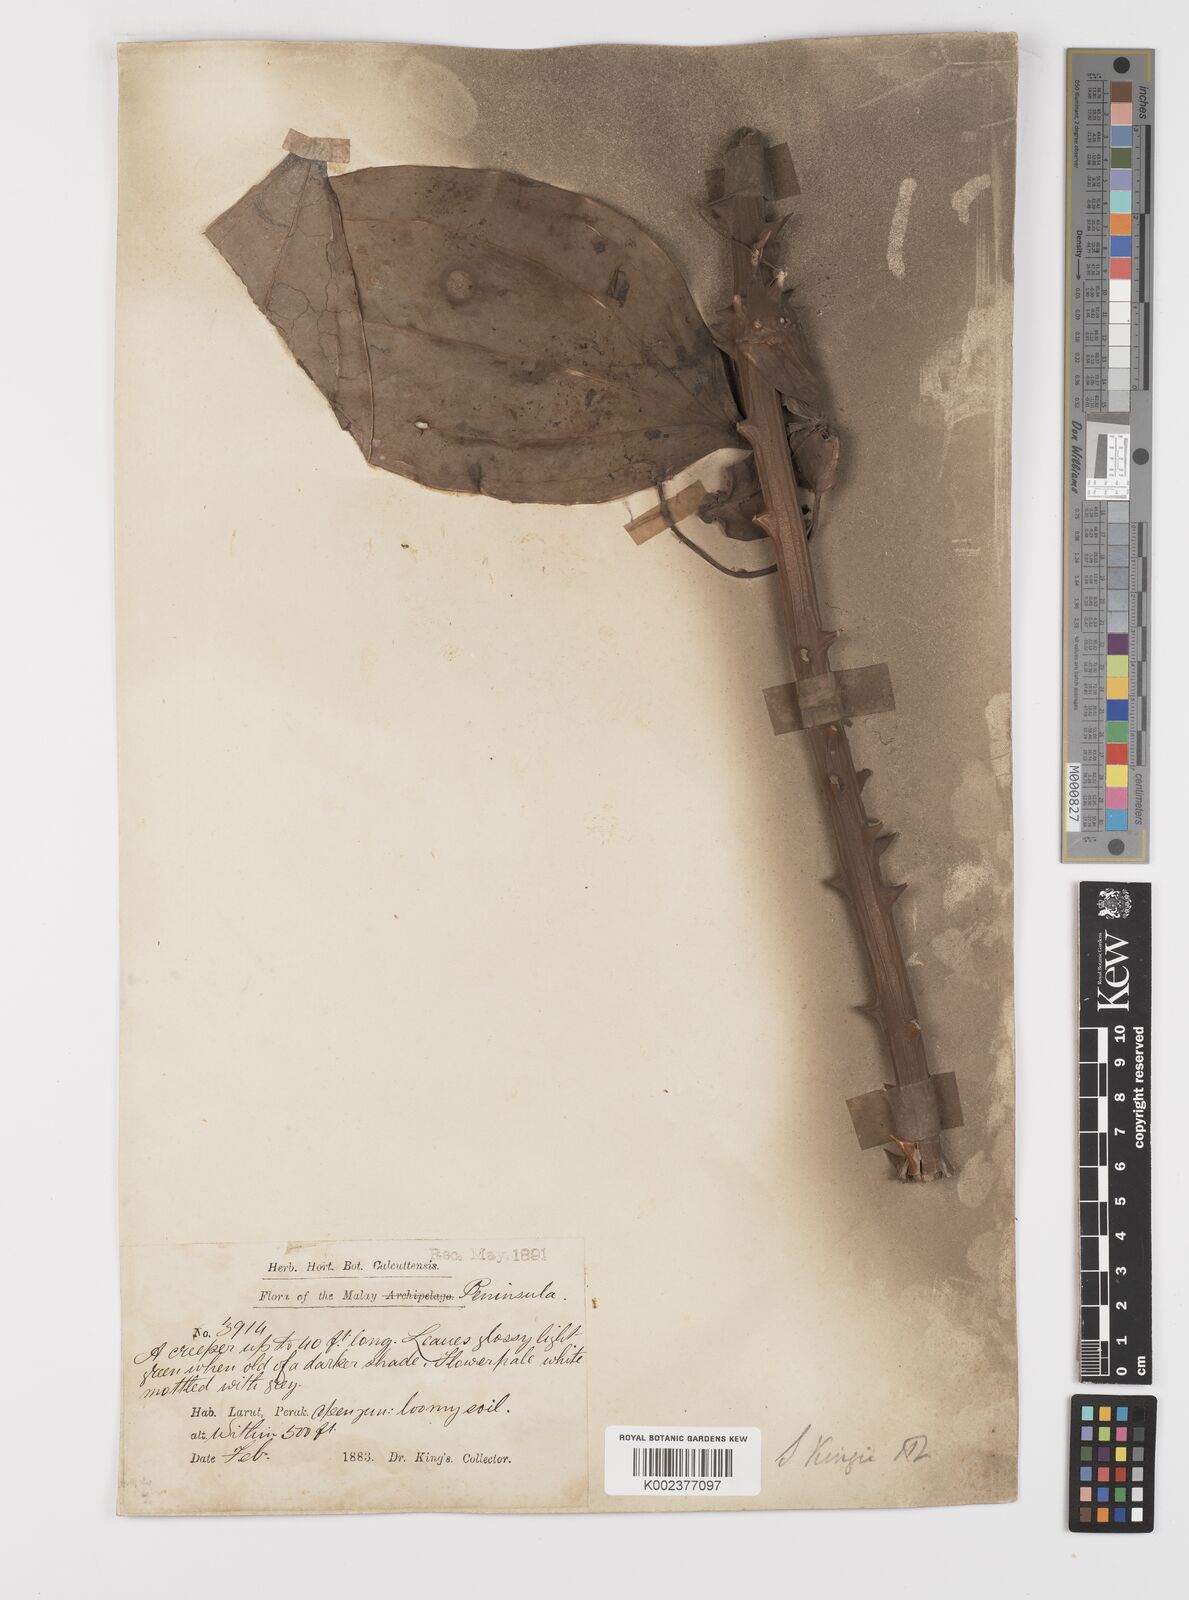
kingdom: Plantae
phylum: Tracheophyta
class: Liliopsida
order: Liliales
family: Smilacaceae
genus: Smilax
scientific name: Smilax kingii
